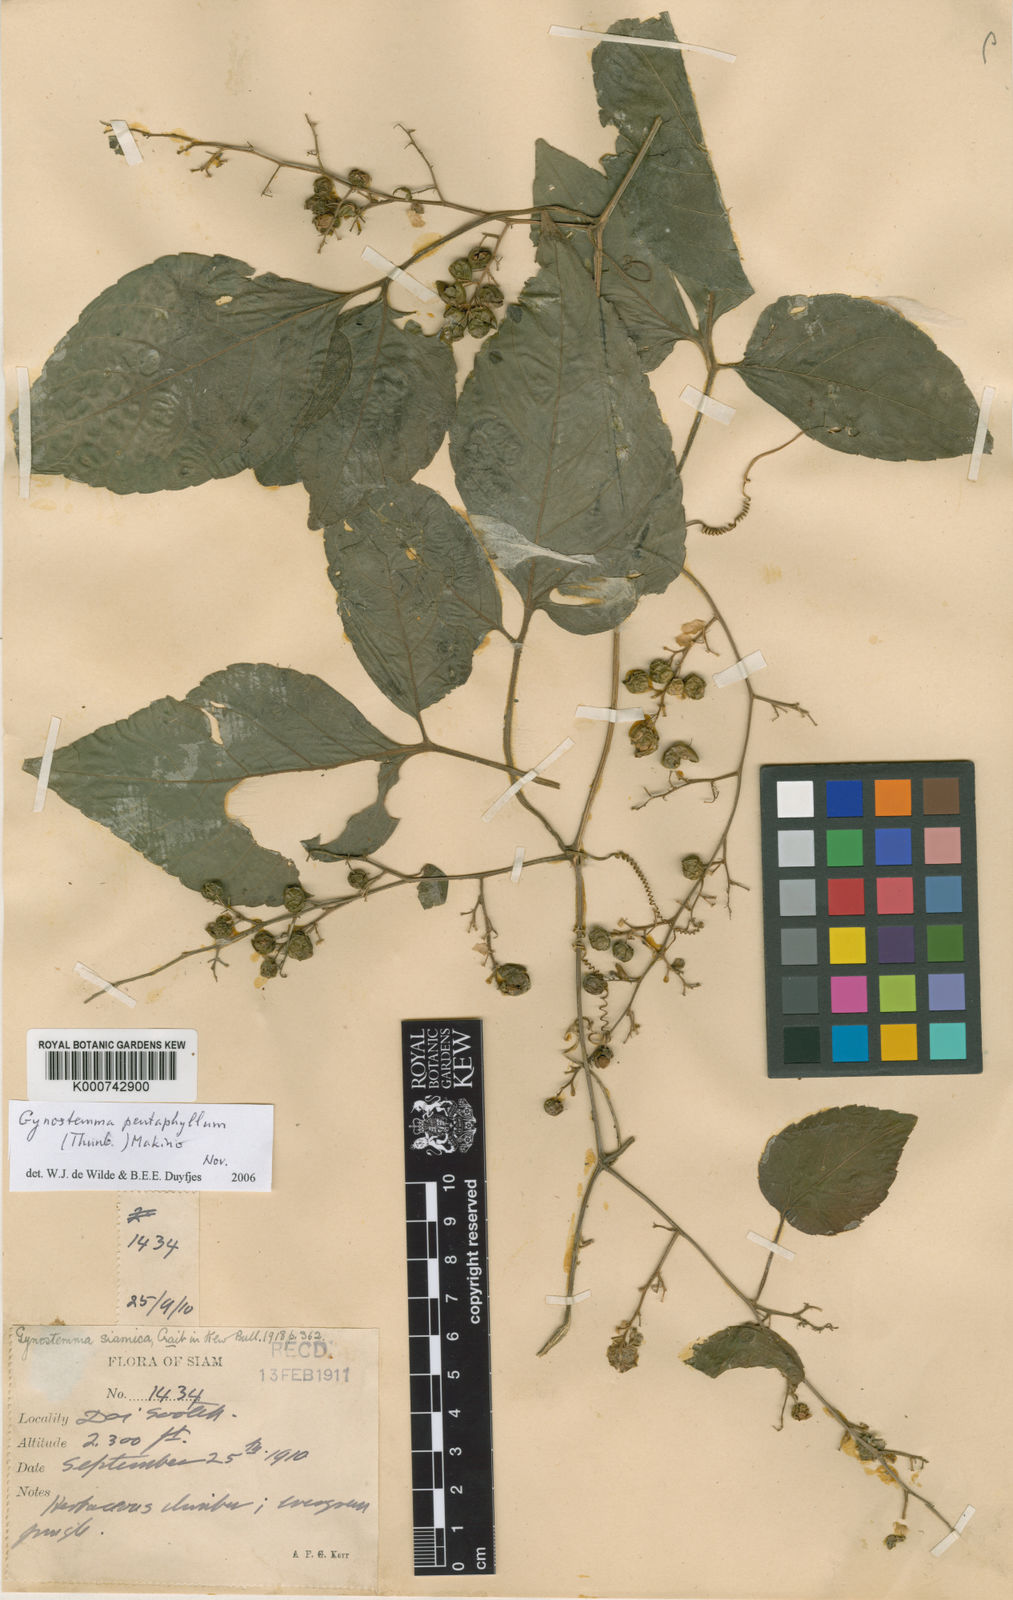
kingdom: Plantae
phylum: Tracheophyta
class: Magnoliopsida
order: Cucurbitales
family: Cucurbitaceae
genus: Gynostemma
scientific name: Gynostemma pentaphyllum
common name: Gynostemma
